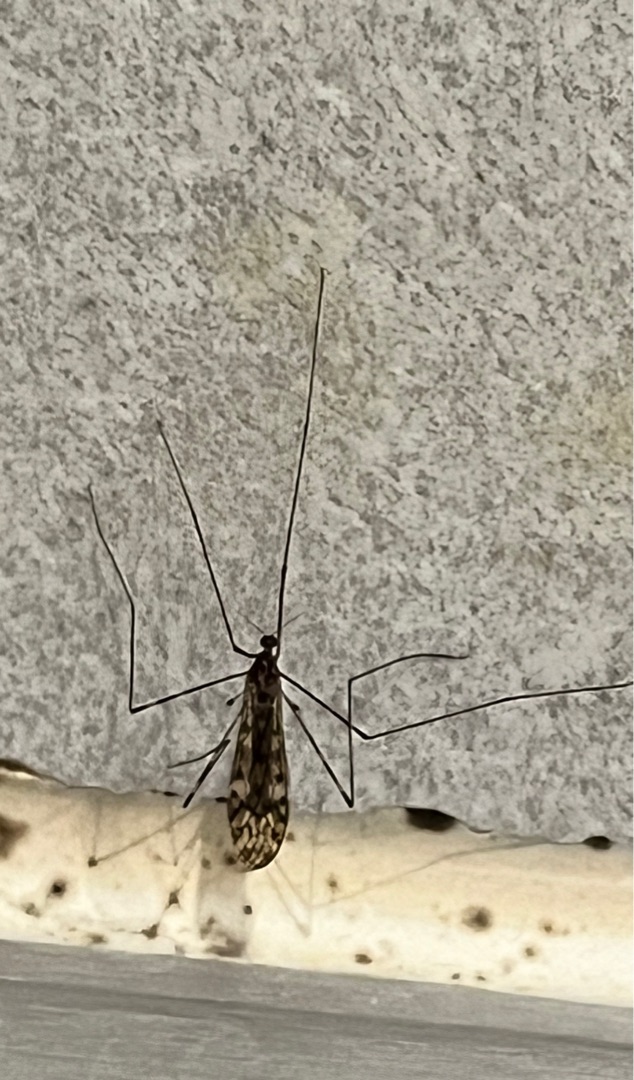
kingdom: Animalia
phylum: Arthropoda
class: Insecta
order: Diptera
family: Limoniidae
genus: Limonia
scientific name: Limonia nubeculosa
